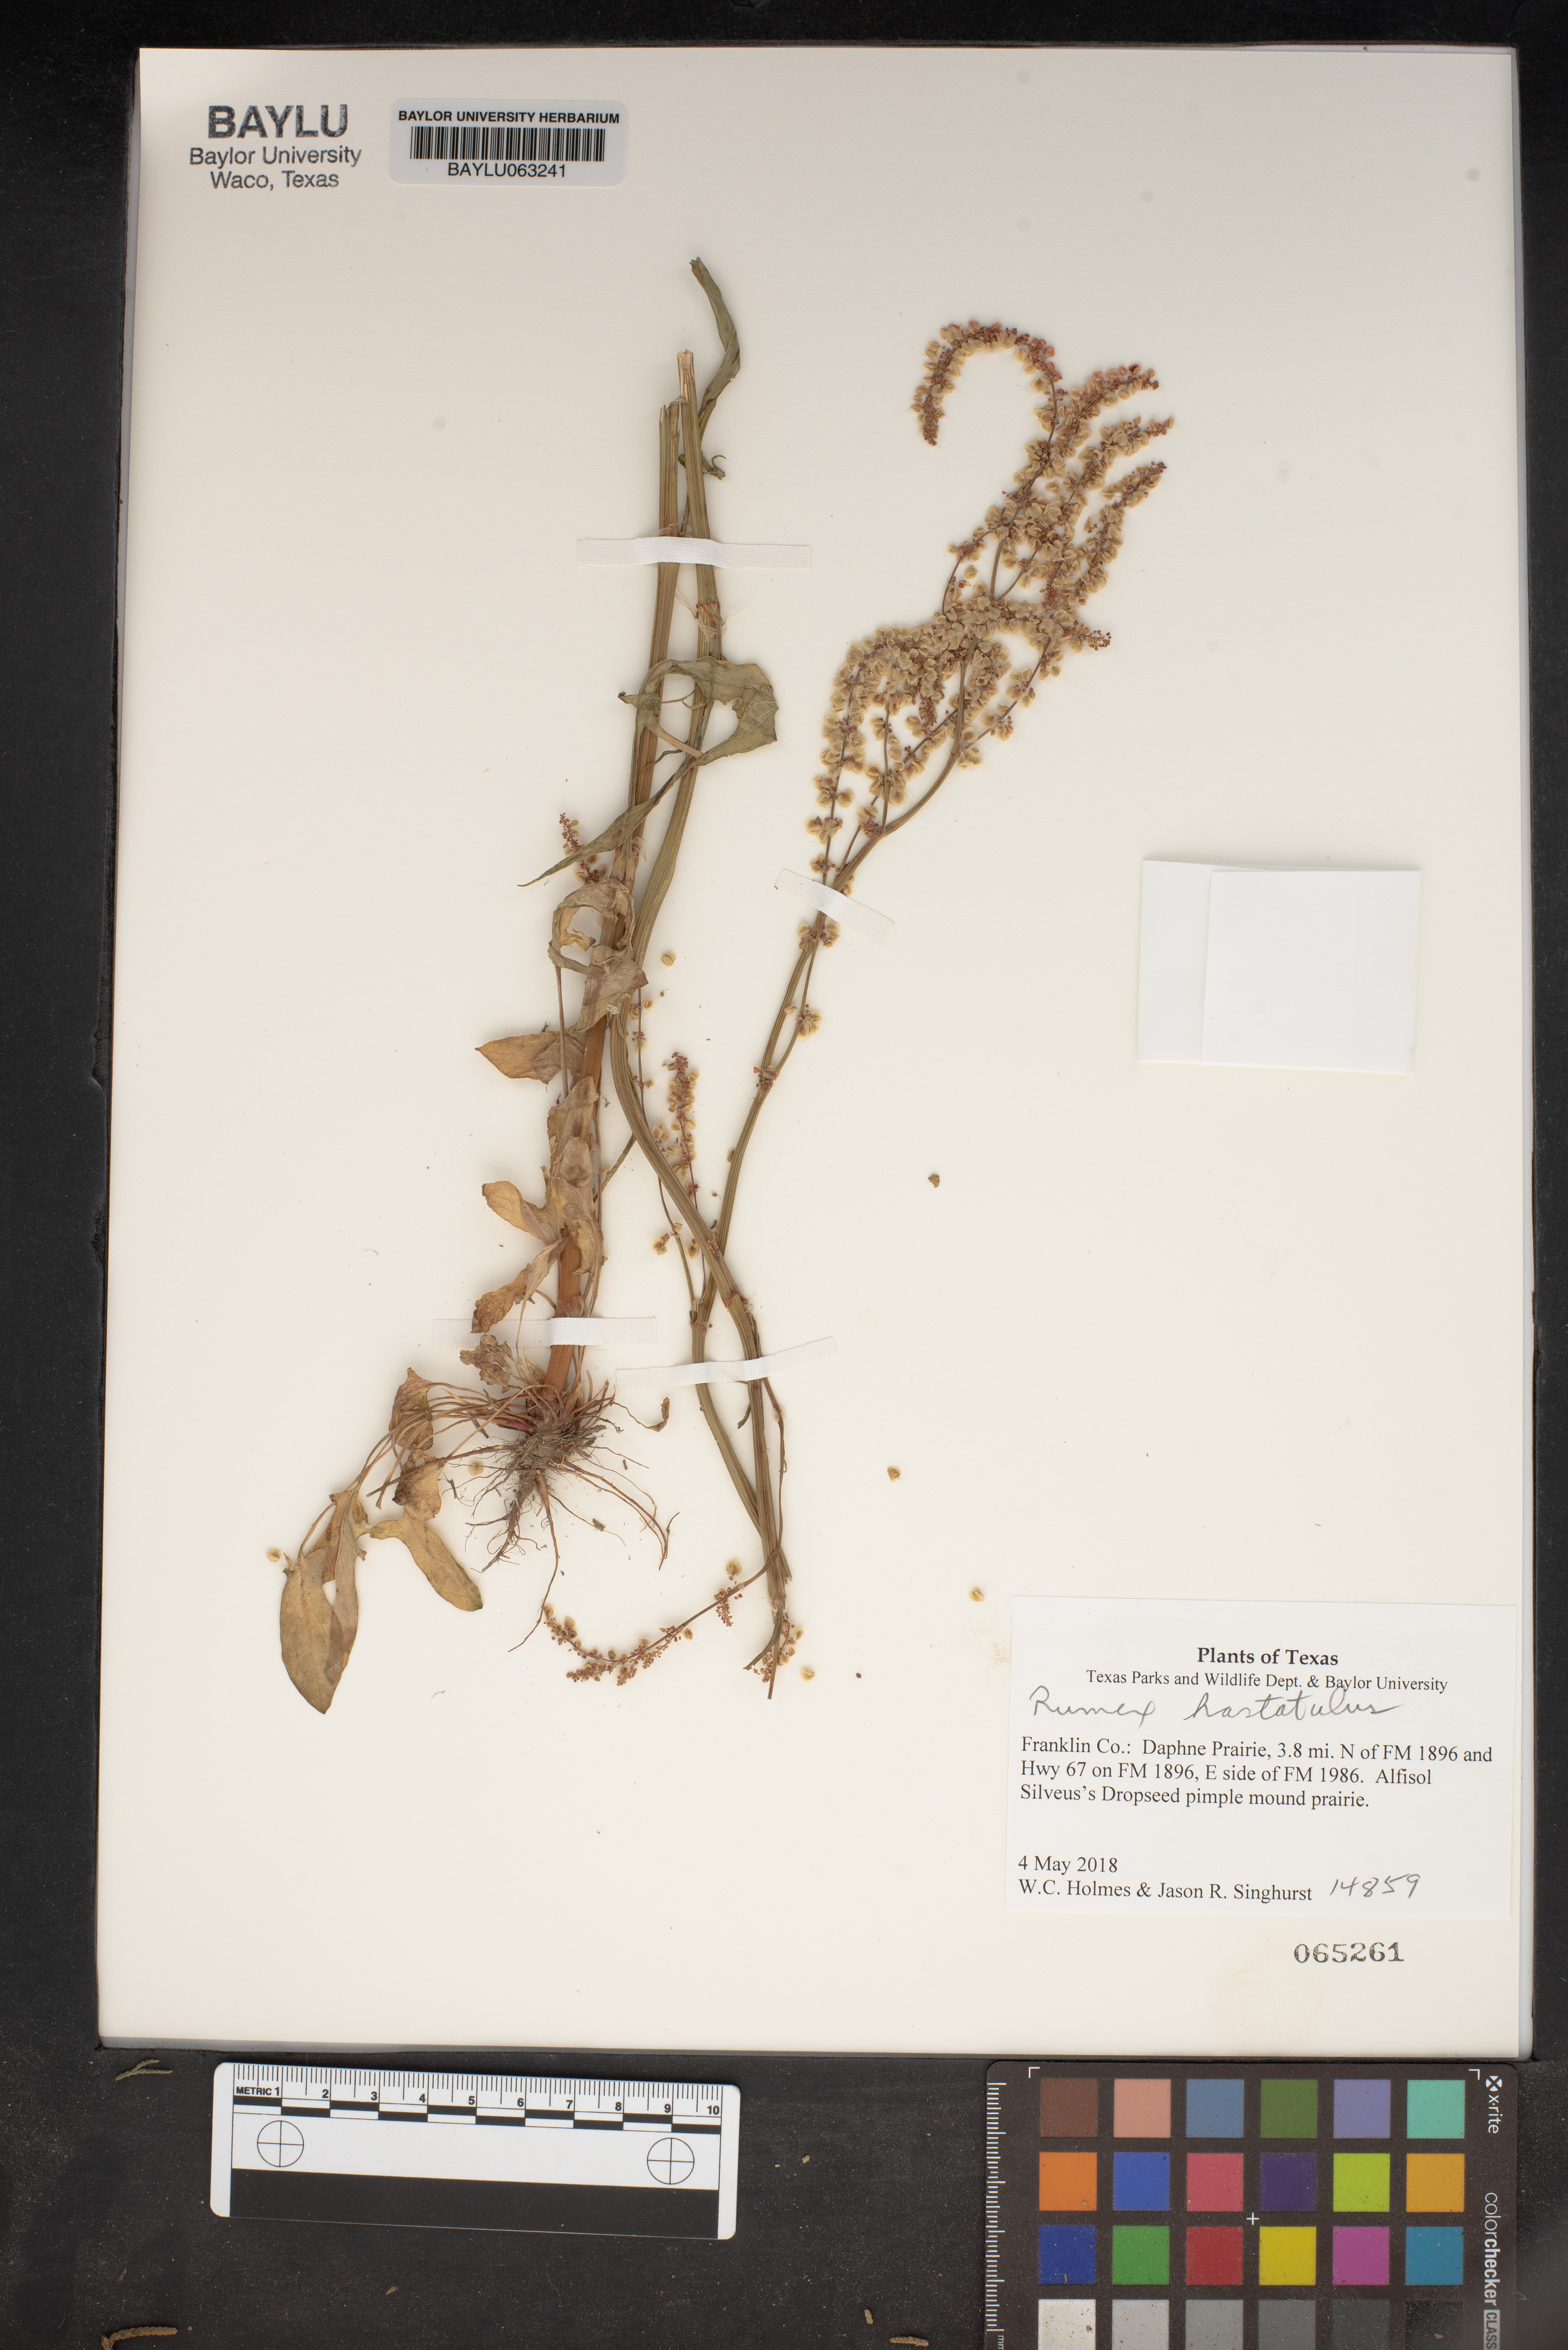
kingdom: Plantae
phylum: Tracheophyta
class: Magnoliopsida
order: Caryophyllales
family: Polygonaceae
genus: Rumex
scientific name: Rumex hastatulus
